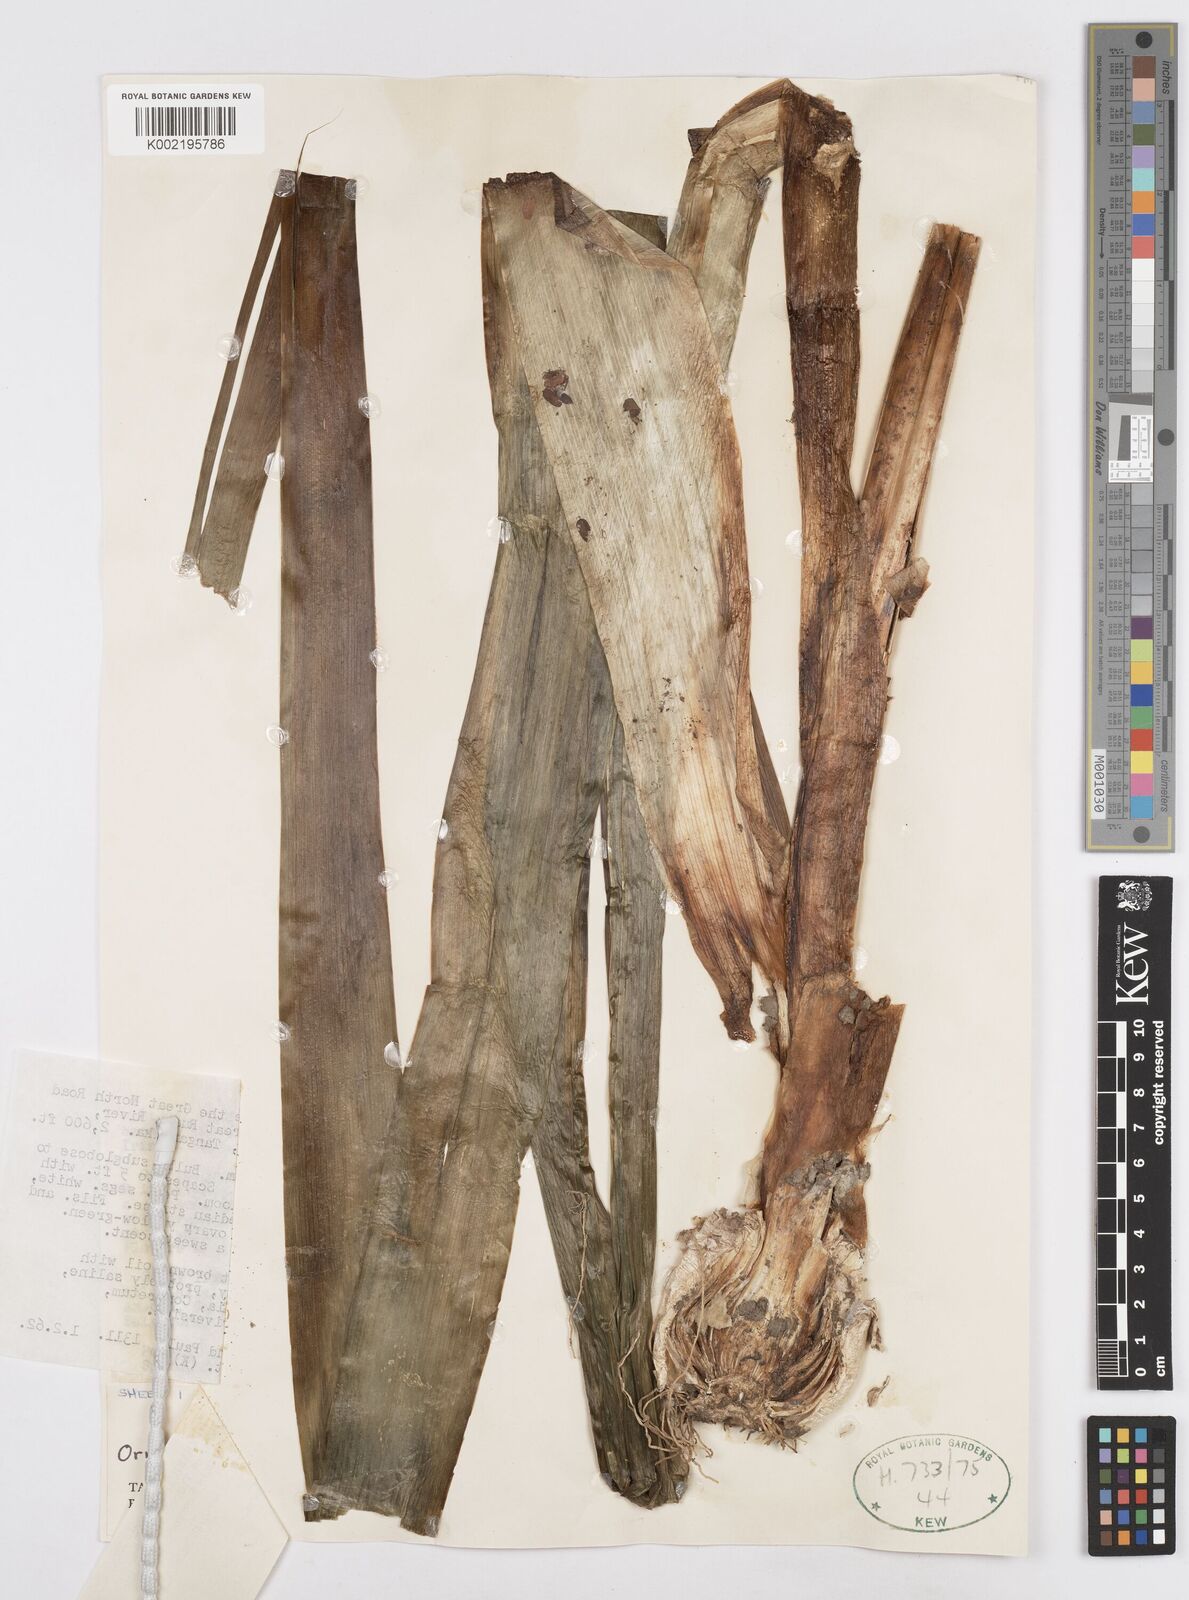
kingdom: Plantae
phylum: Tracheophyta
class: Liliopsida
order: Asparagales
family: Asparagaceae
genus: Albuca
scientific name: Albuca bracteata
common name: Sea-onion
